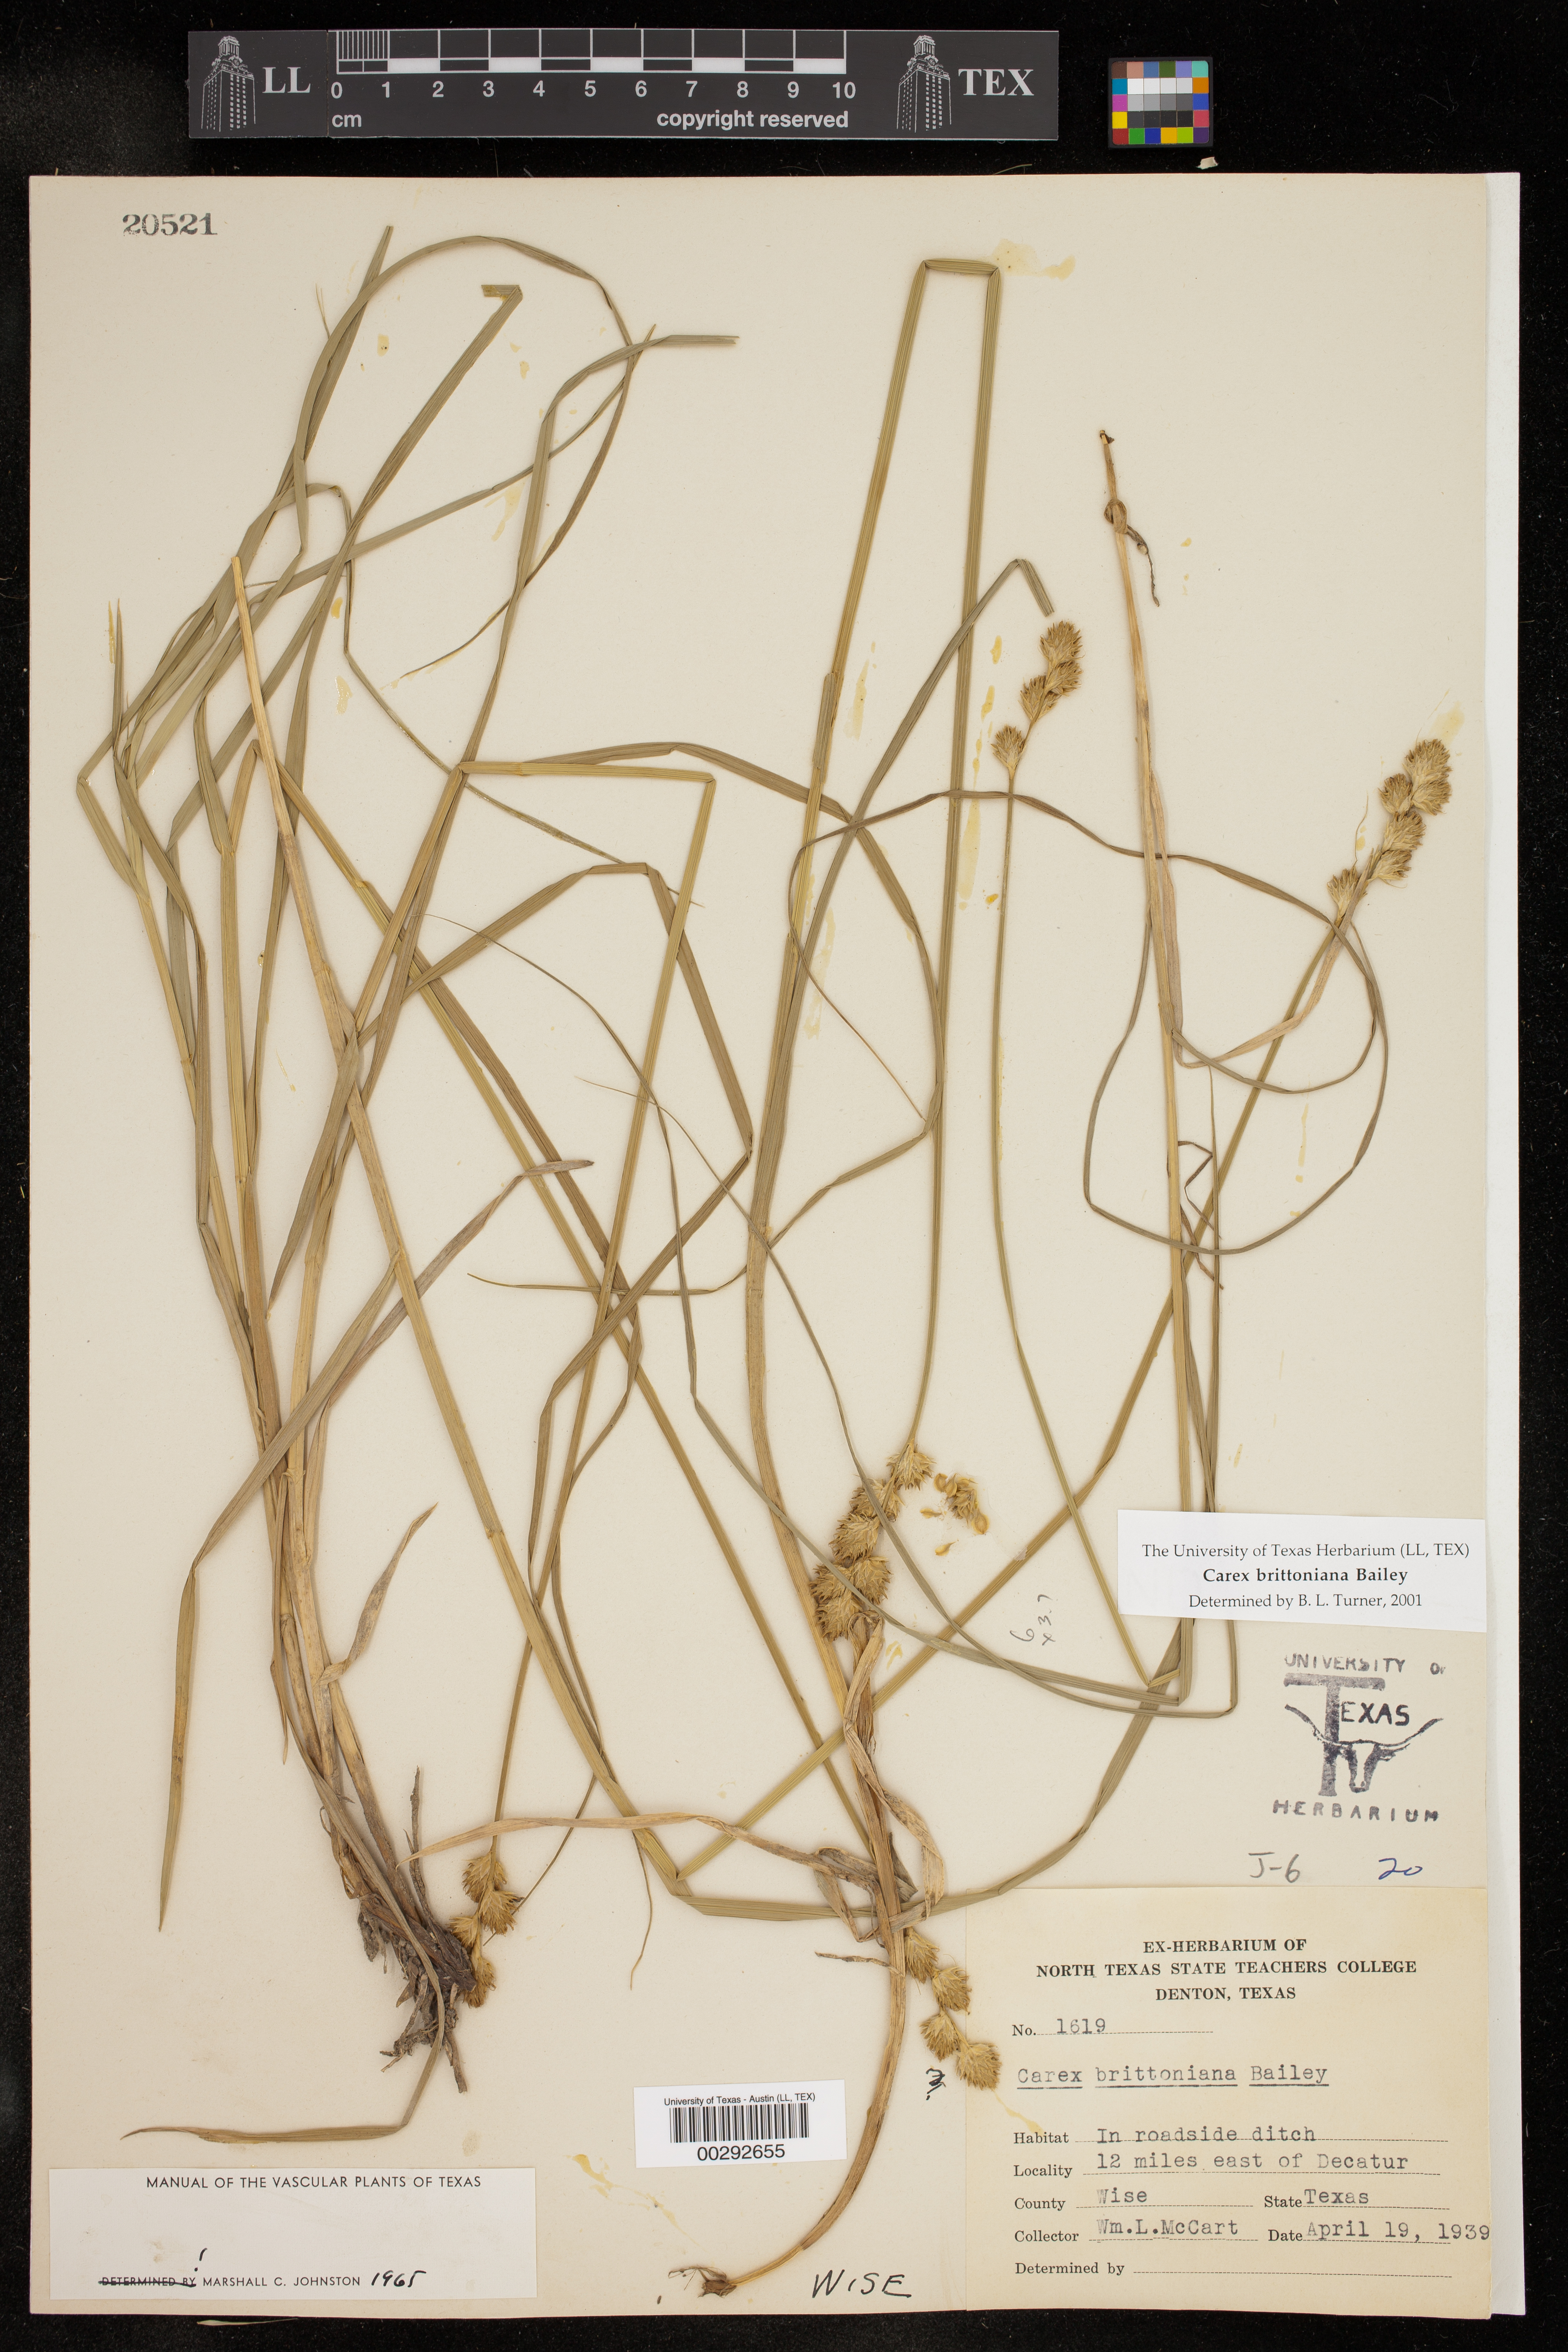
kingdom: Plantae
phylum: Tracheophyta
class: Liliopsida
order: Poales
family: Cyperaceae
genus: Carex
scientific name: Carex tetrastachya
